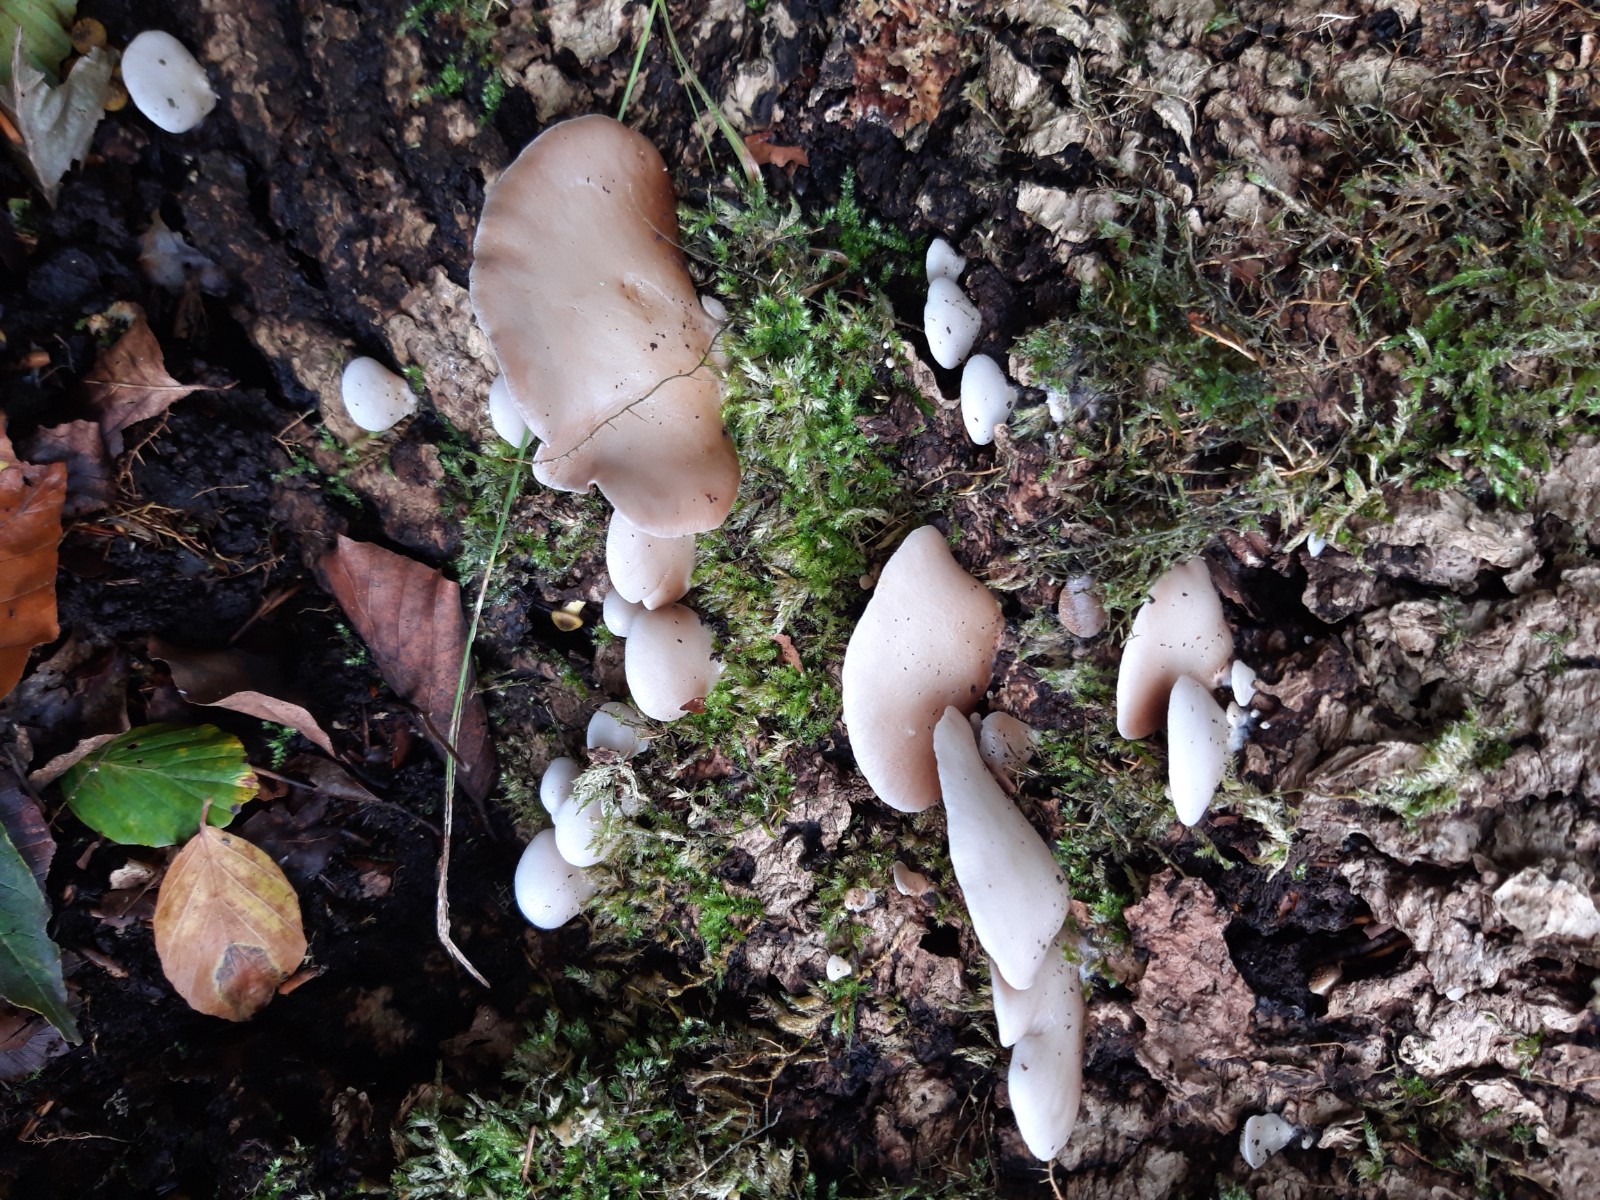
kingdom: Fungi
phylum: Basidiomycota
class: Agaricomycetes
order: Agaricales
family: Crepidotaceae
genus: Crepidotus
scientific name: Crepidotus mollis
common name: blød muslingesvamp
